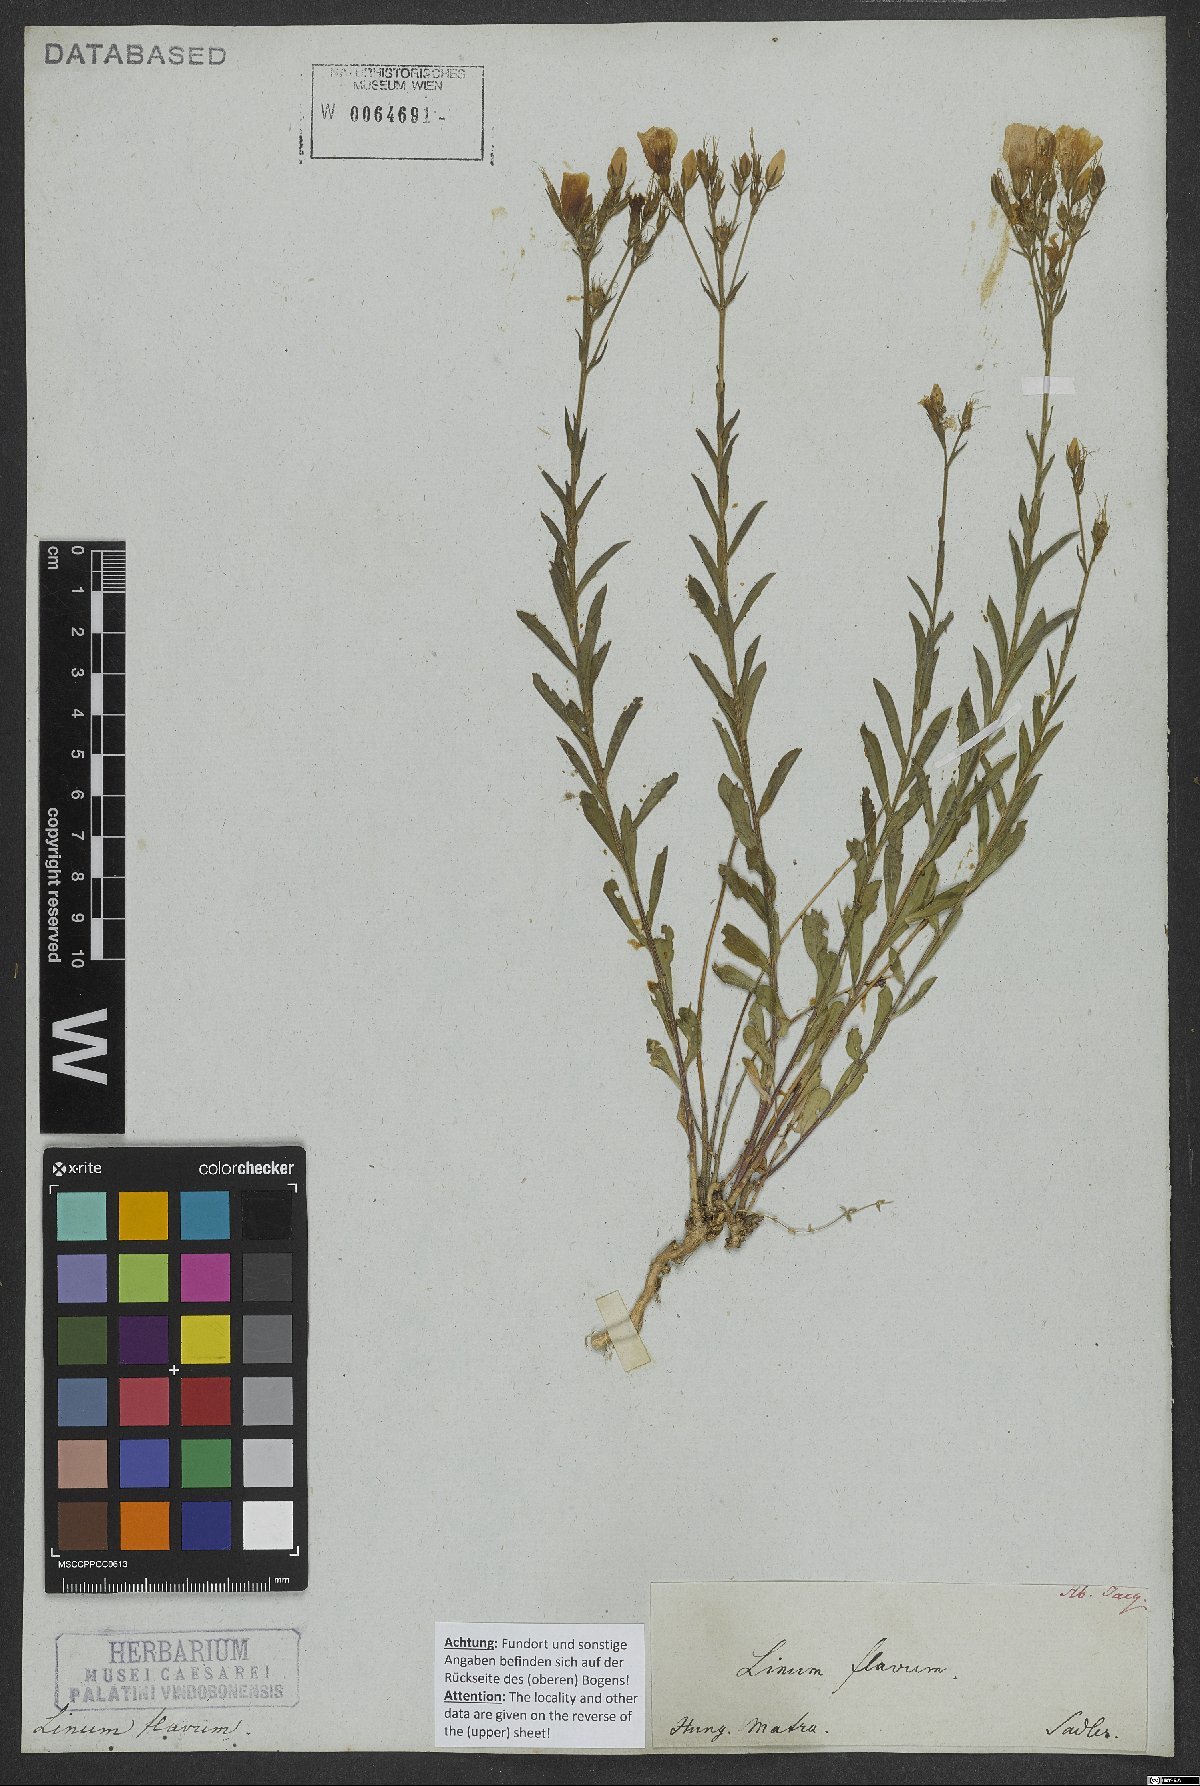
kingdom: Plantae
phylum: Tracheophyta
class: Magnoliopsida
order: Malpighiales
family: Linaceae
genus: Linum
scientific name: Linum flavum
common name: Yellow flax
